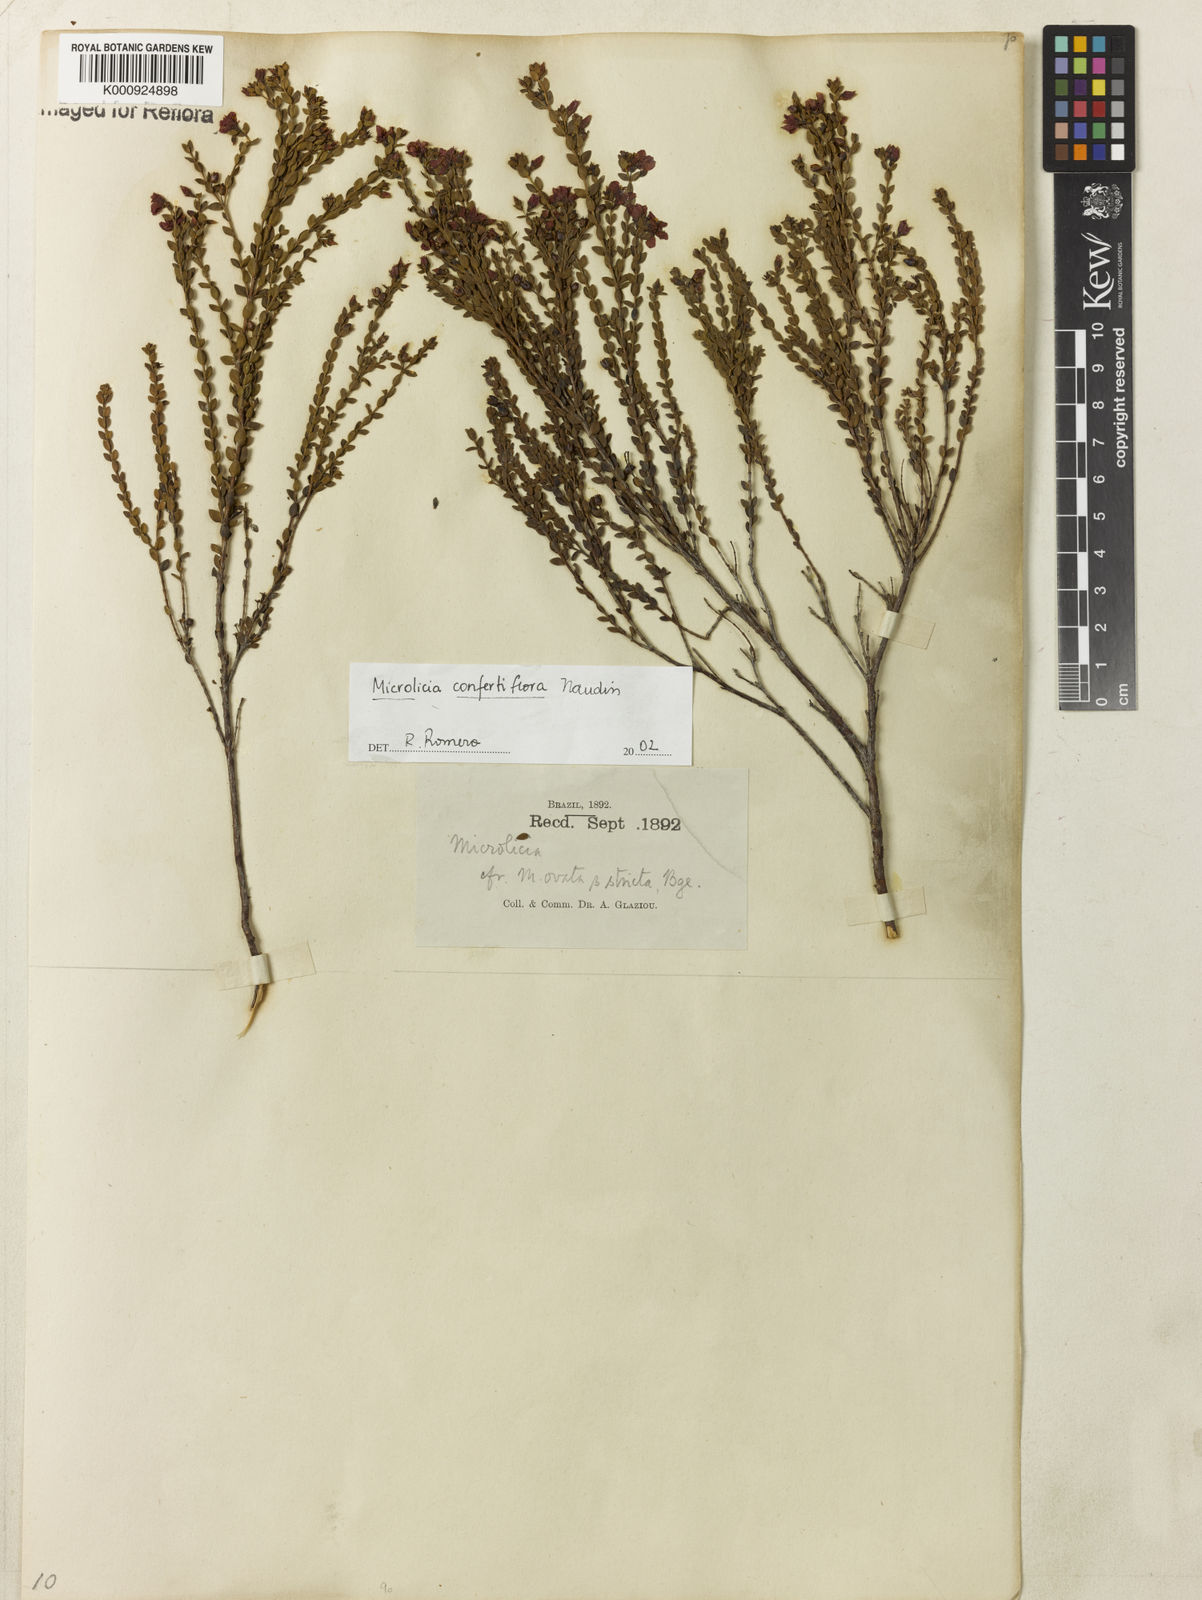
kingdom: Plantae
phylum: Tracheophyta
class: Magnoliopsida
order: Myrtales
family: Melastomataceae
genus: Microlicia
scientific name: Microlicia confertiflora
